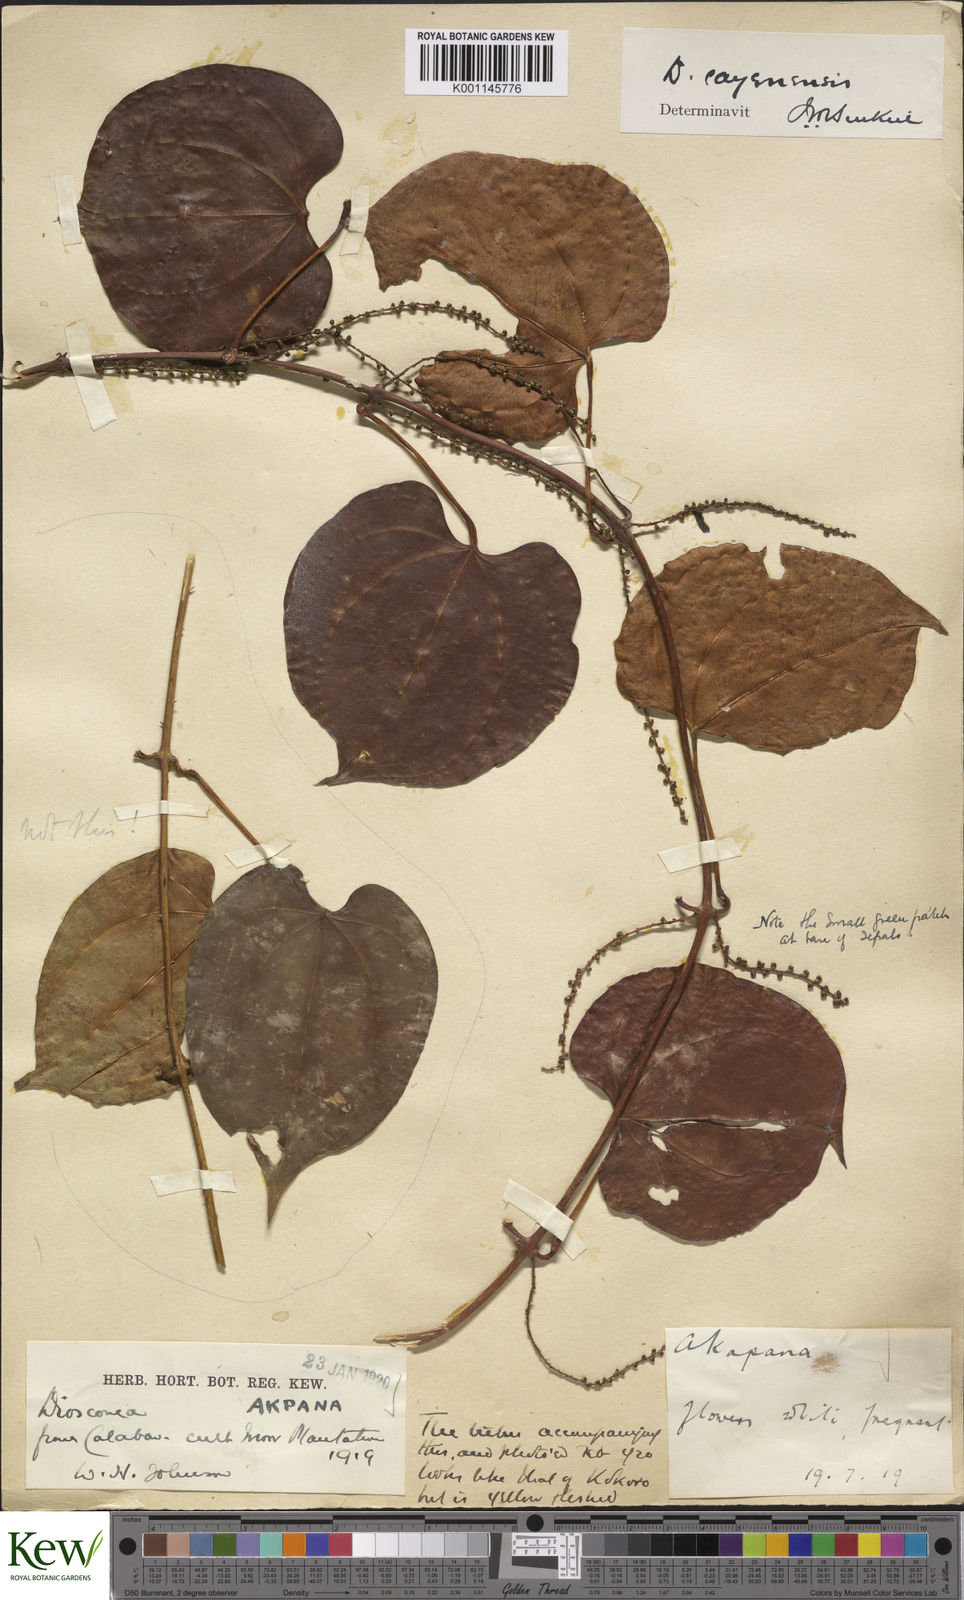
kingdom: Plantae
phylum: Tracheophyta
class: Liliopsida
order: Dioscoreales
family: Dioscoreaceae
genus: Dioscorea
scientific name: Dioscorea cayenensis
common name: Attoto yam
